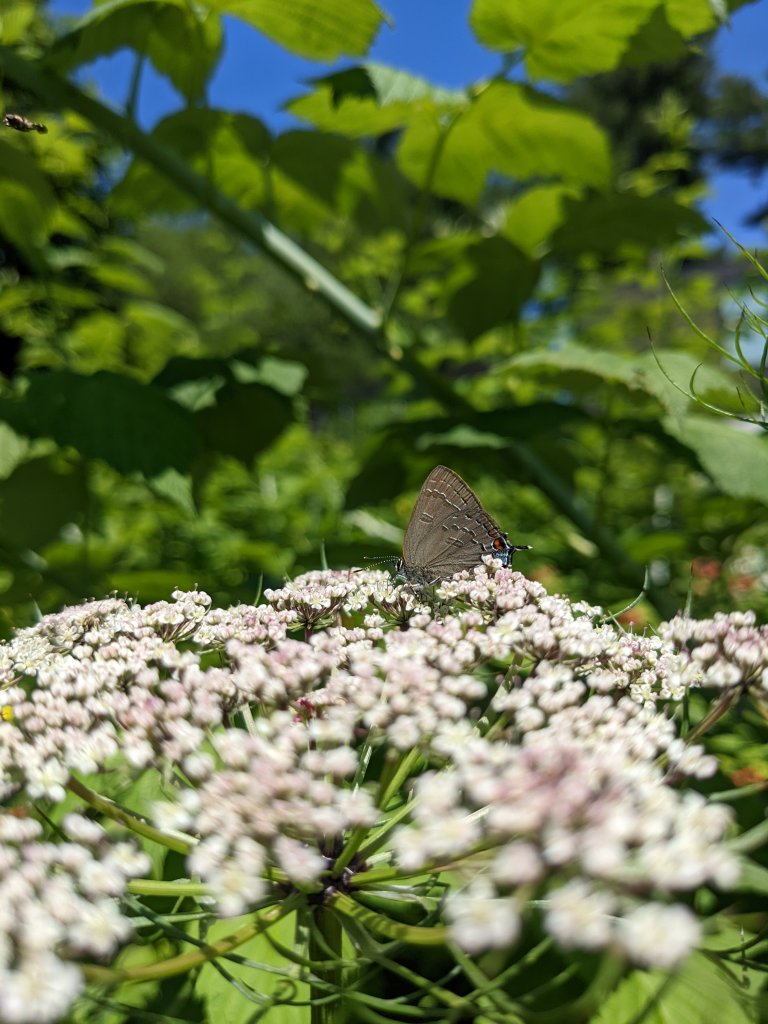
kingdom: Animalia
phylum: Arthropoda
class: Insecta
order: Lepidoptera
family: Lycaenidae
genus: Satyrium
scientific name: Satyrium calanus
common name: Banded Hairstreak
